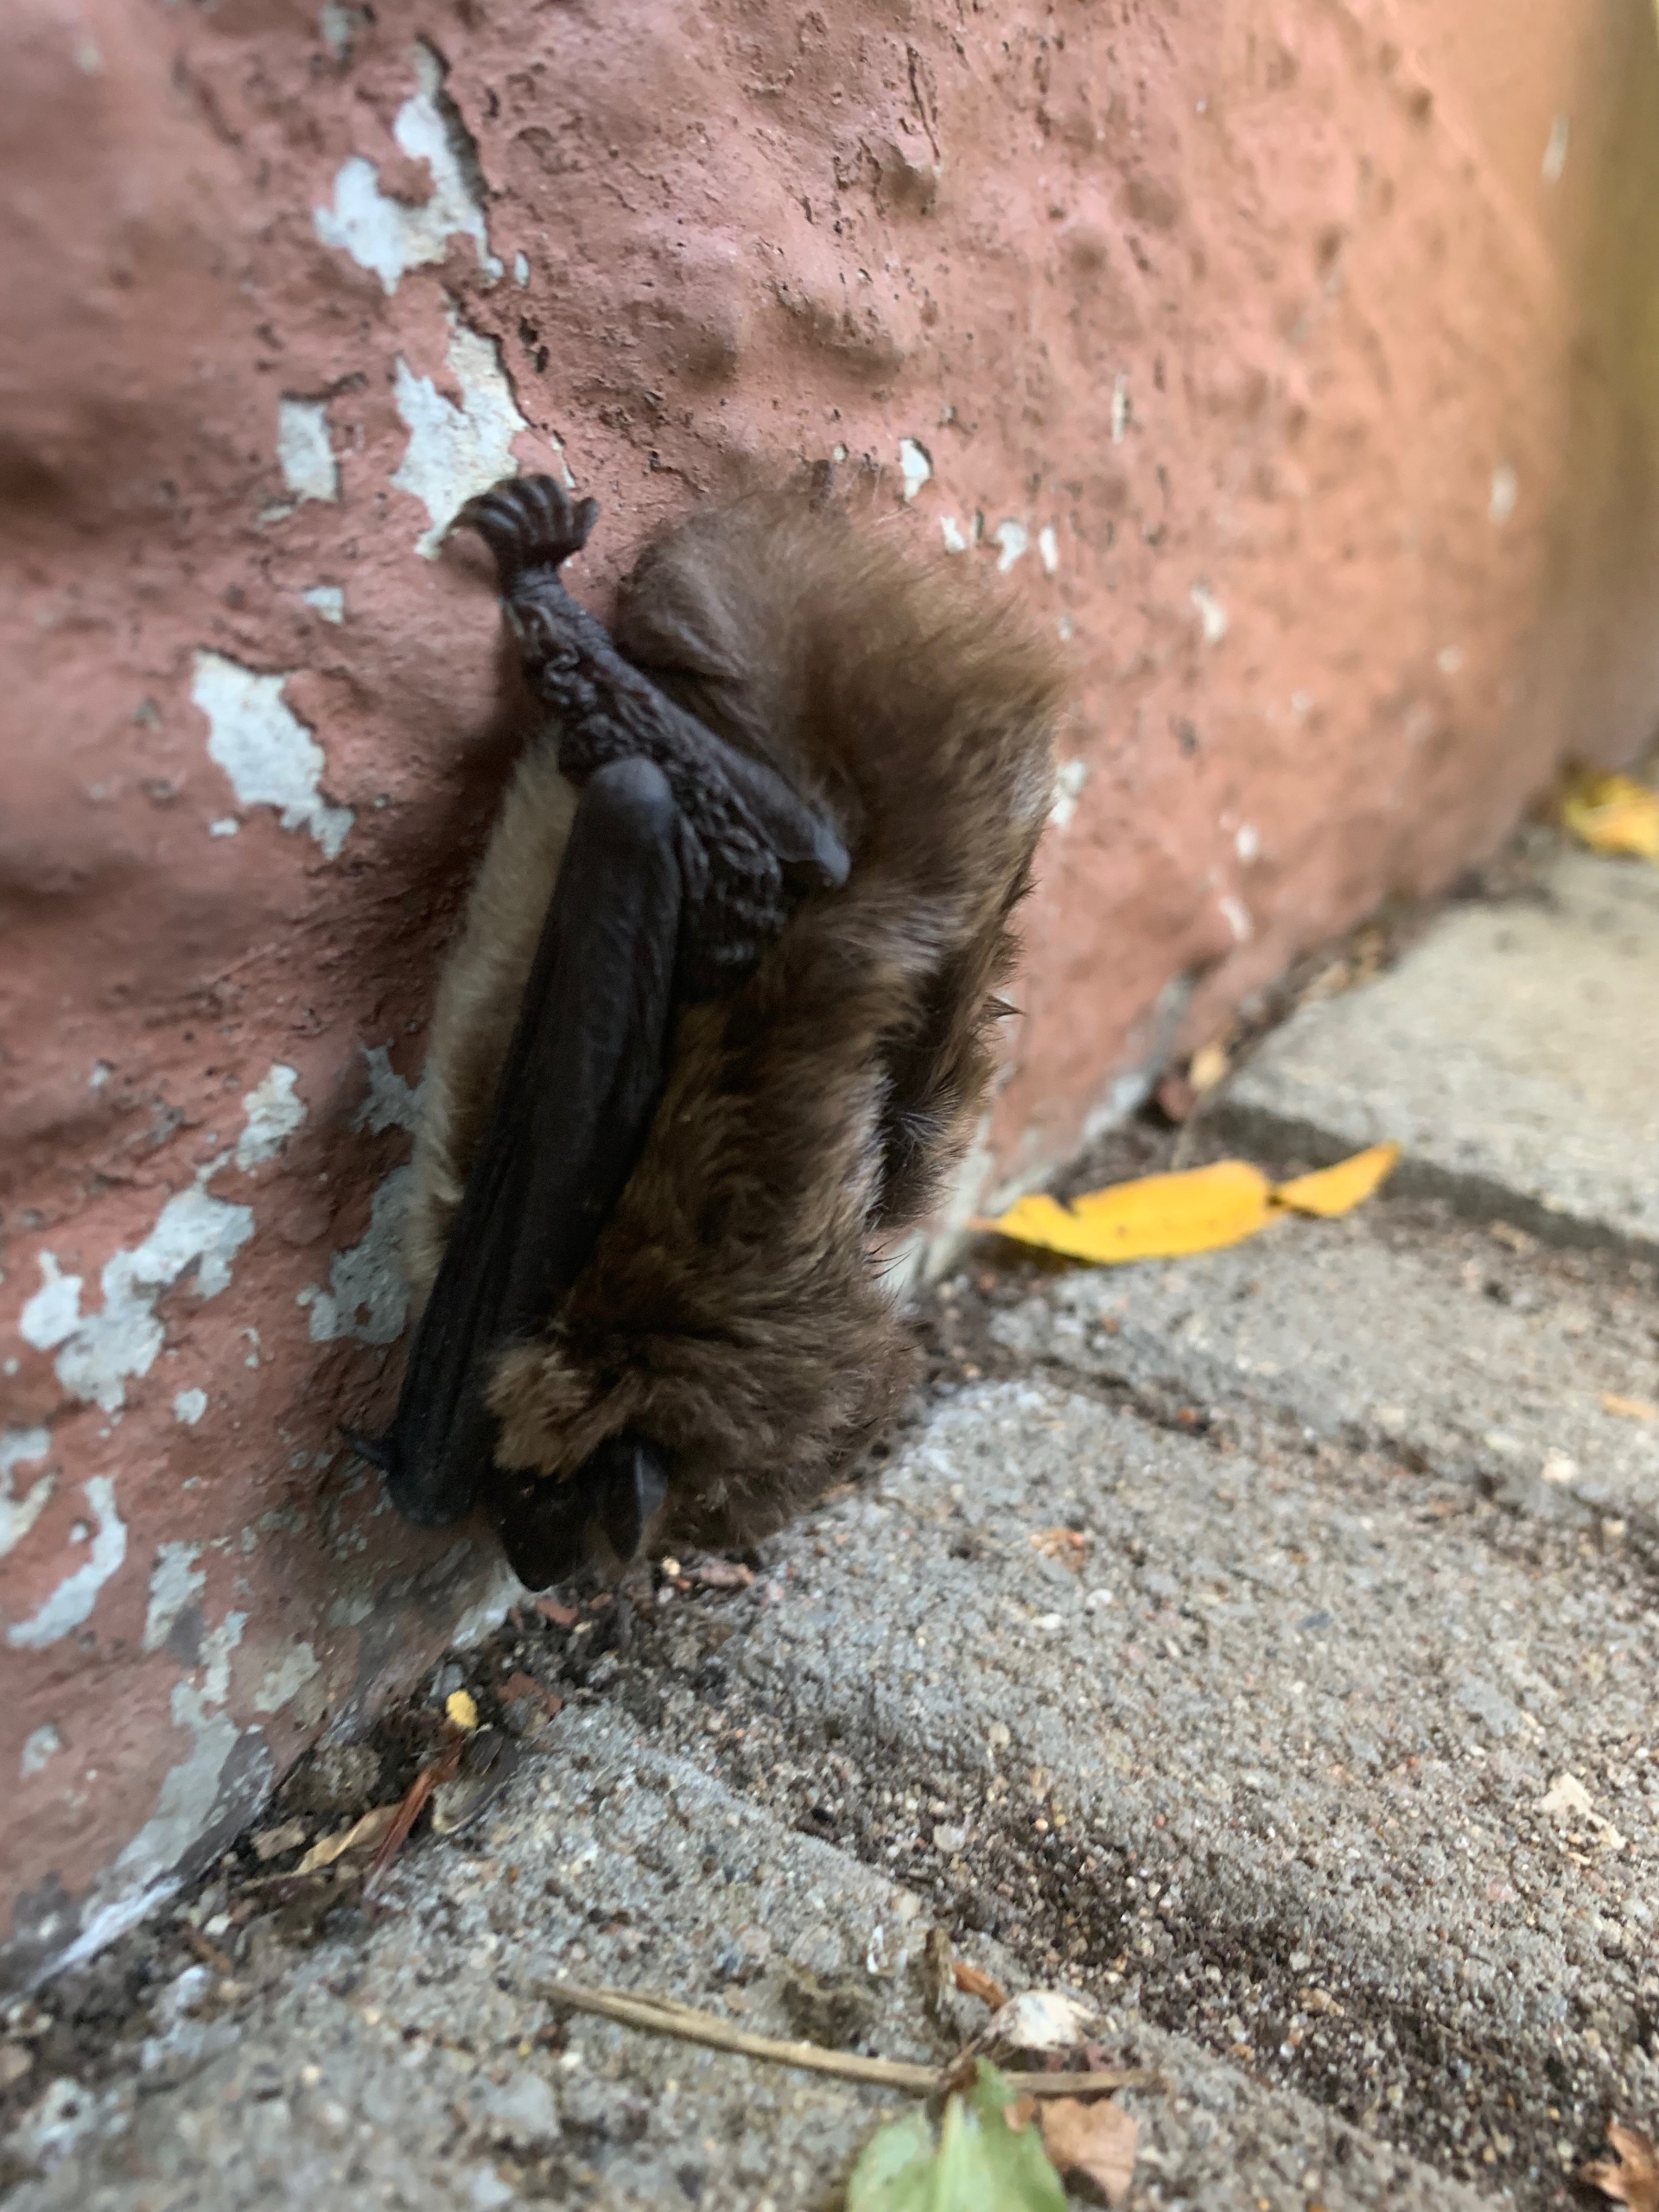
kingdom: Animalia
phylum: Chordata
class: Mammalia
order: Chiroptera
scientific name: Chiroptera
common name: Flagermus
